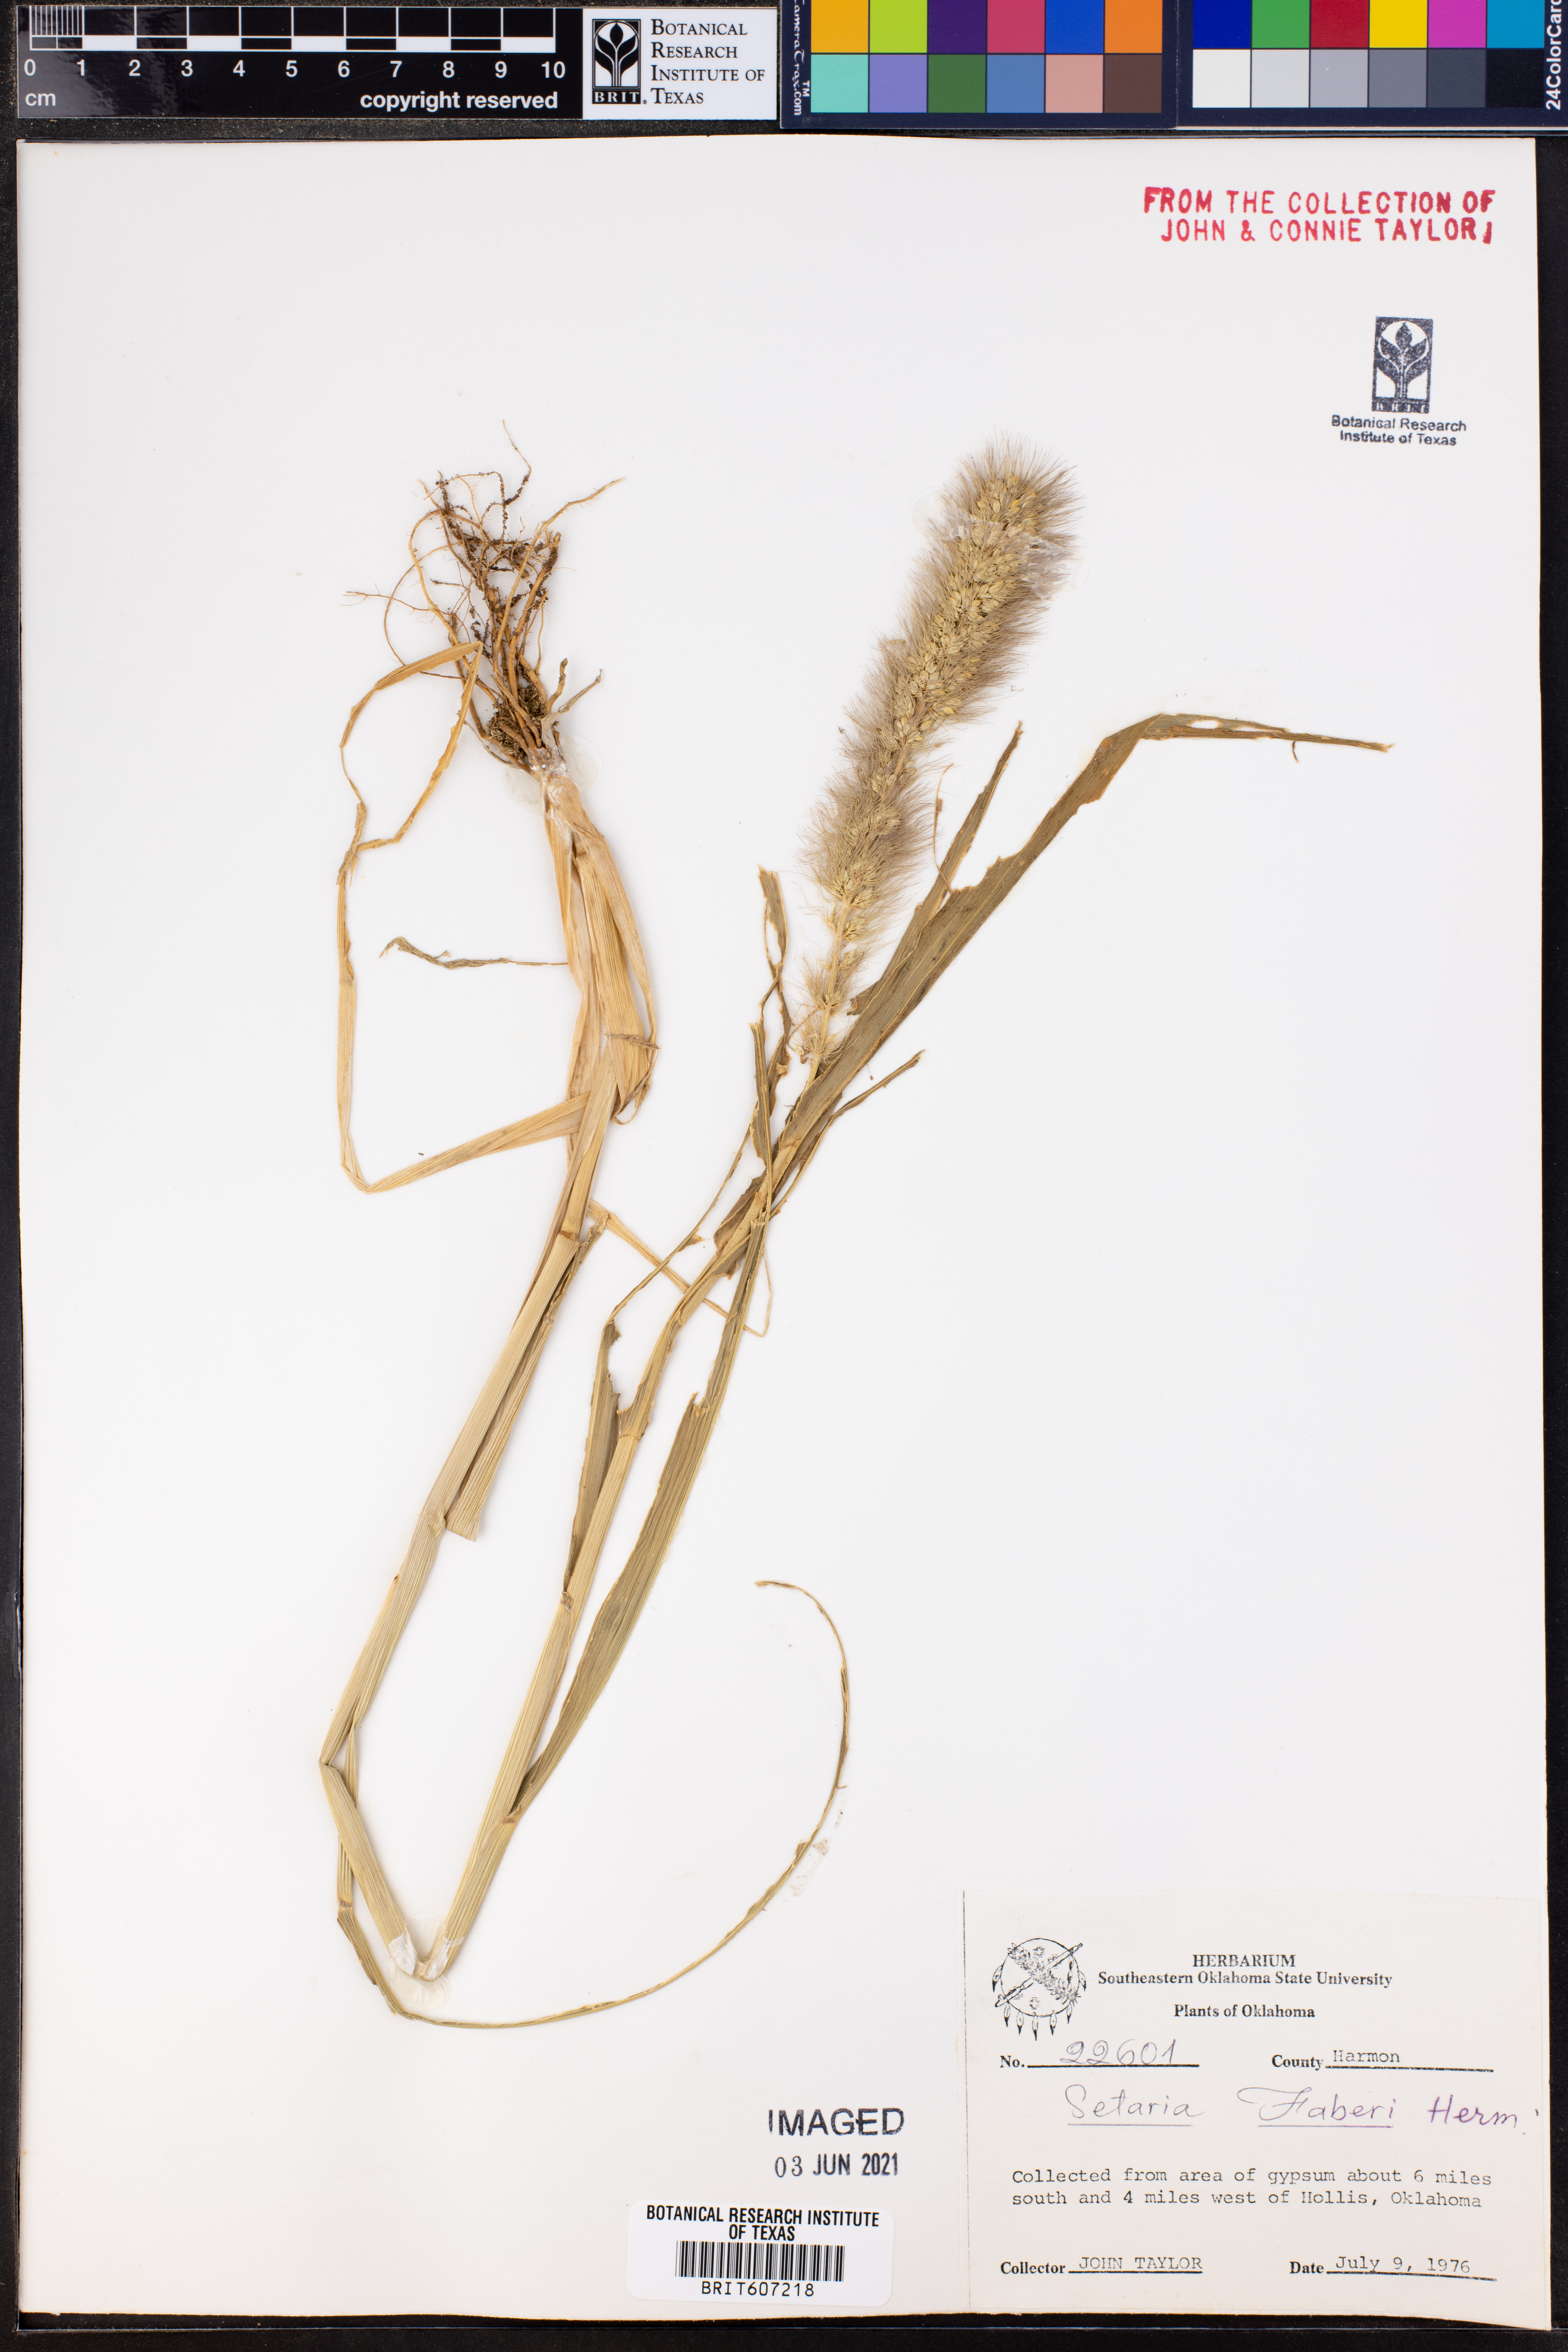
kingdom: Plantae
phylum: Tracheophyta
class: Liliopsida
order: Poales
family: Poaceae
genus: Setaria
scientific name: Setaria faberi
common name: Nodding bristle-grass
